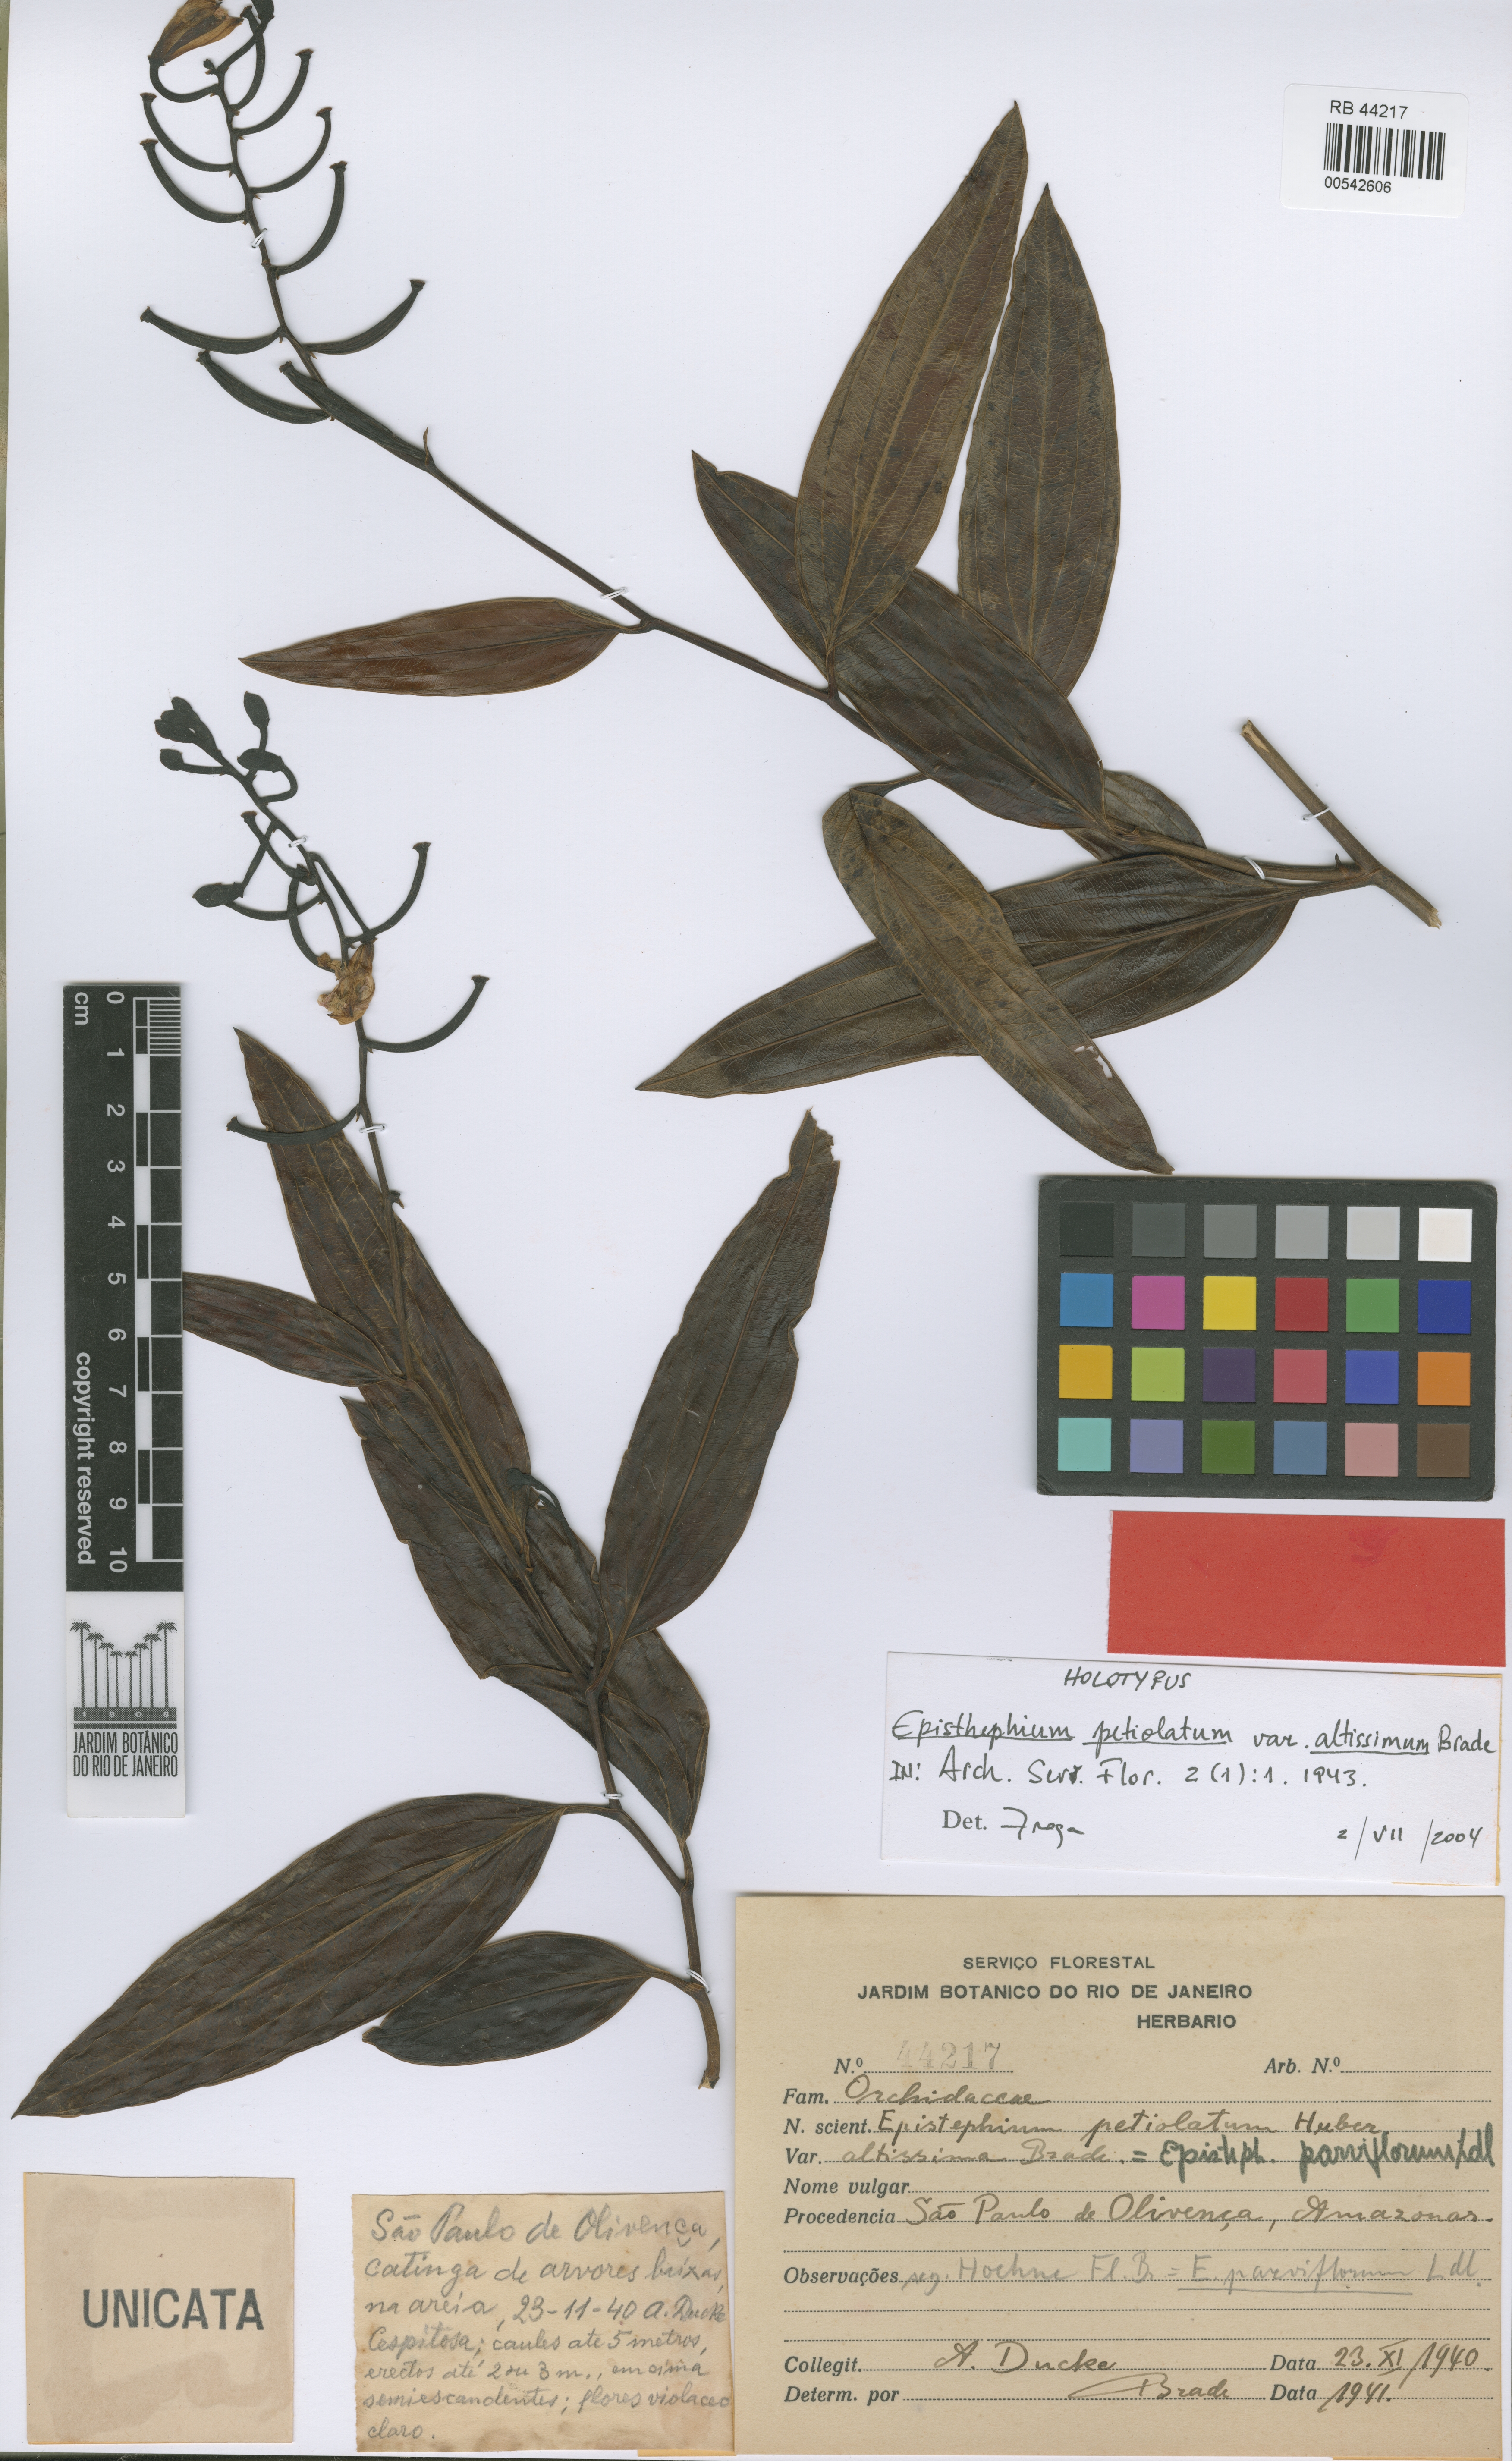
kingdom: Plantae
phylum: Tracheophyta
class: Liliopsida
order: Asparagales
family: Orchidaceae
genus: Epistephium
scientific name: Epistephium parviflorum
